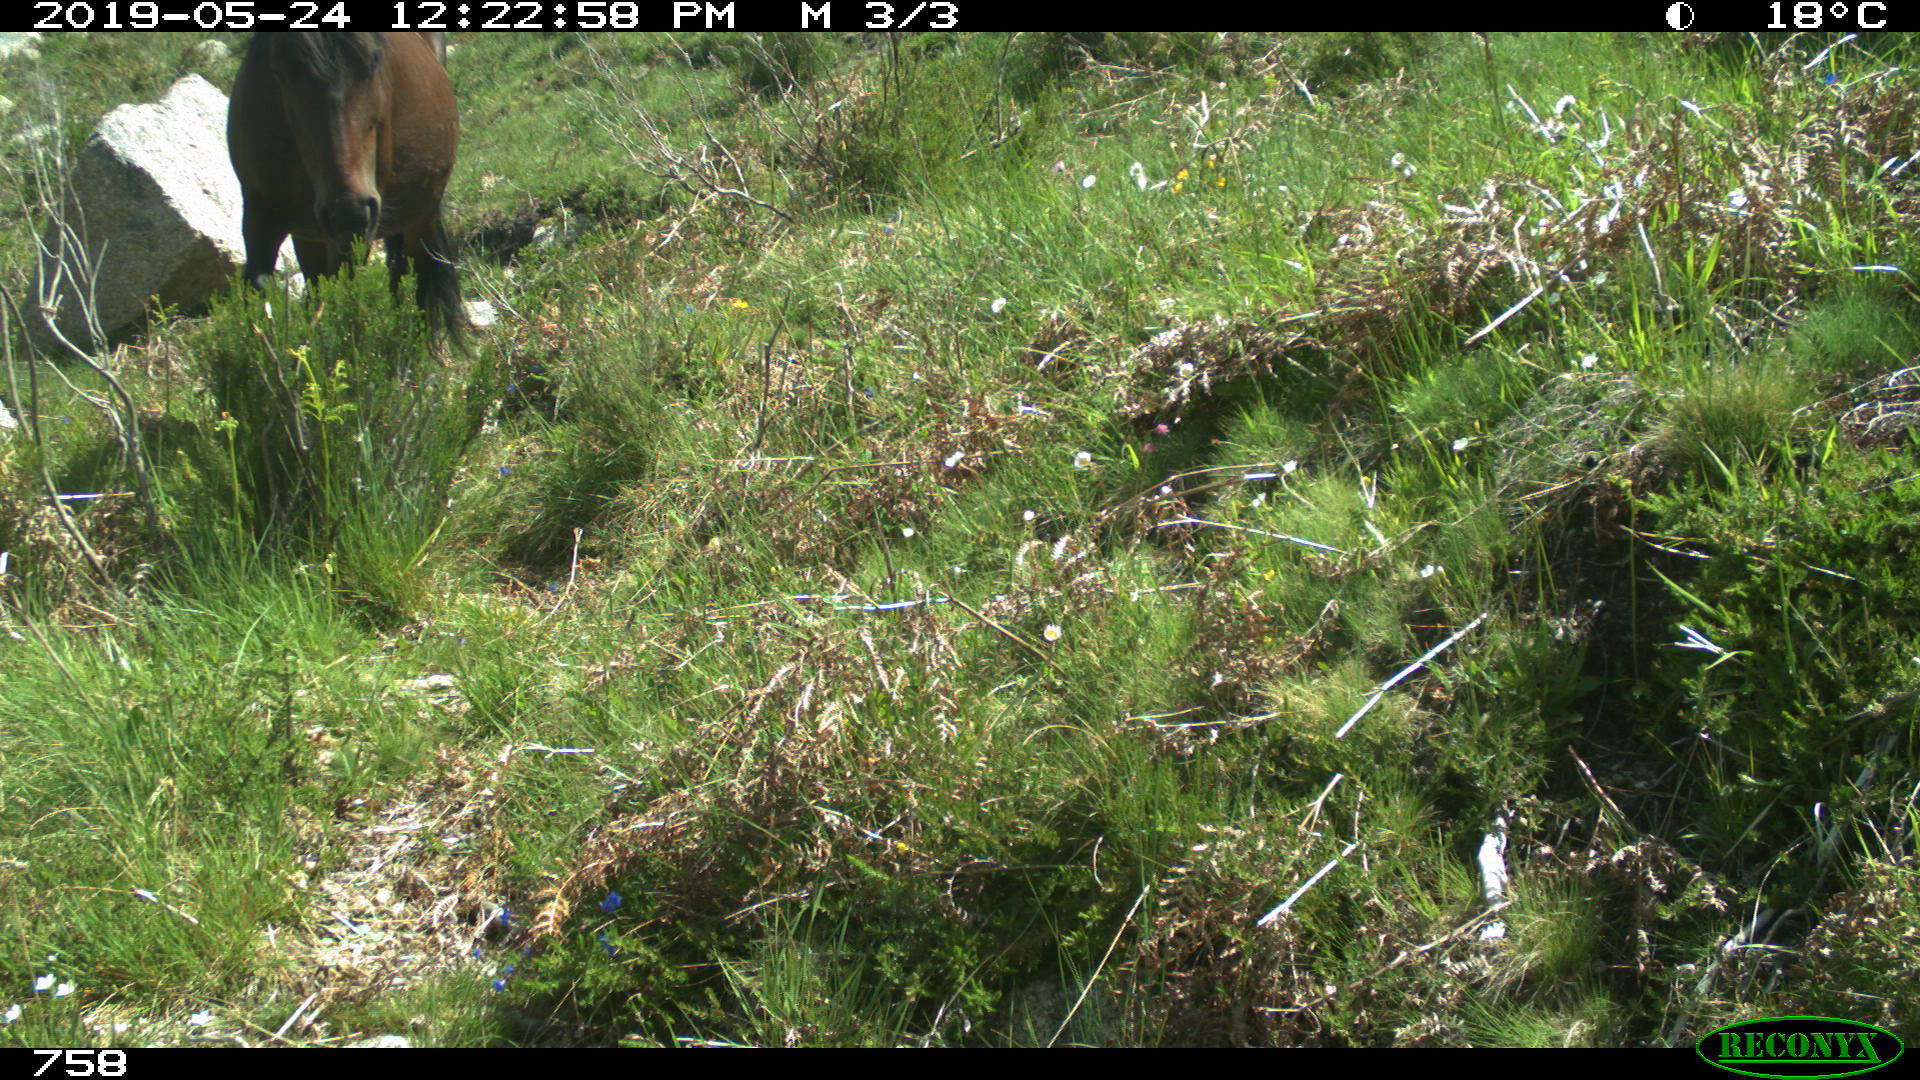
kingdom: Animalia
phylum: Chordata
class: Mammalia
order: Perissodactyla
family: Equidae
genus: Equus
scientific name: Equus caballus
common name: Horse
